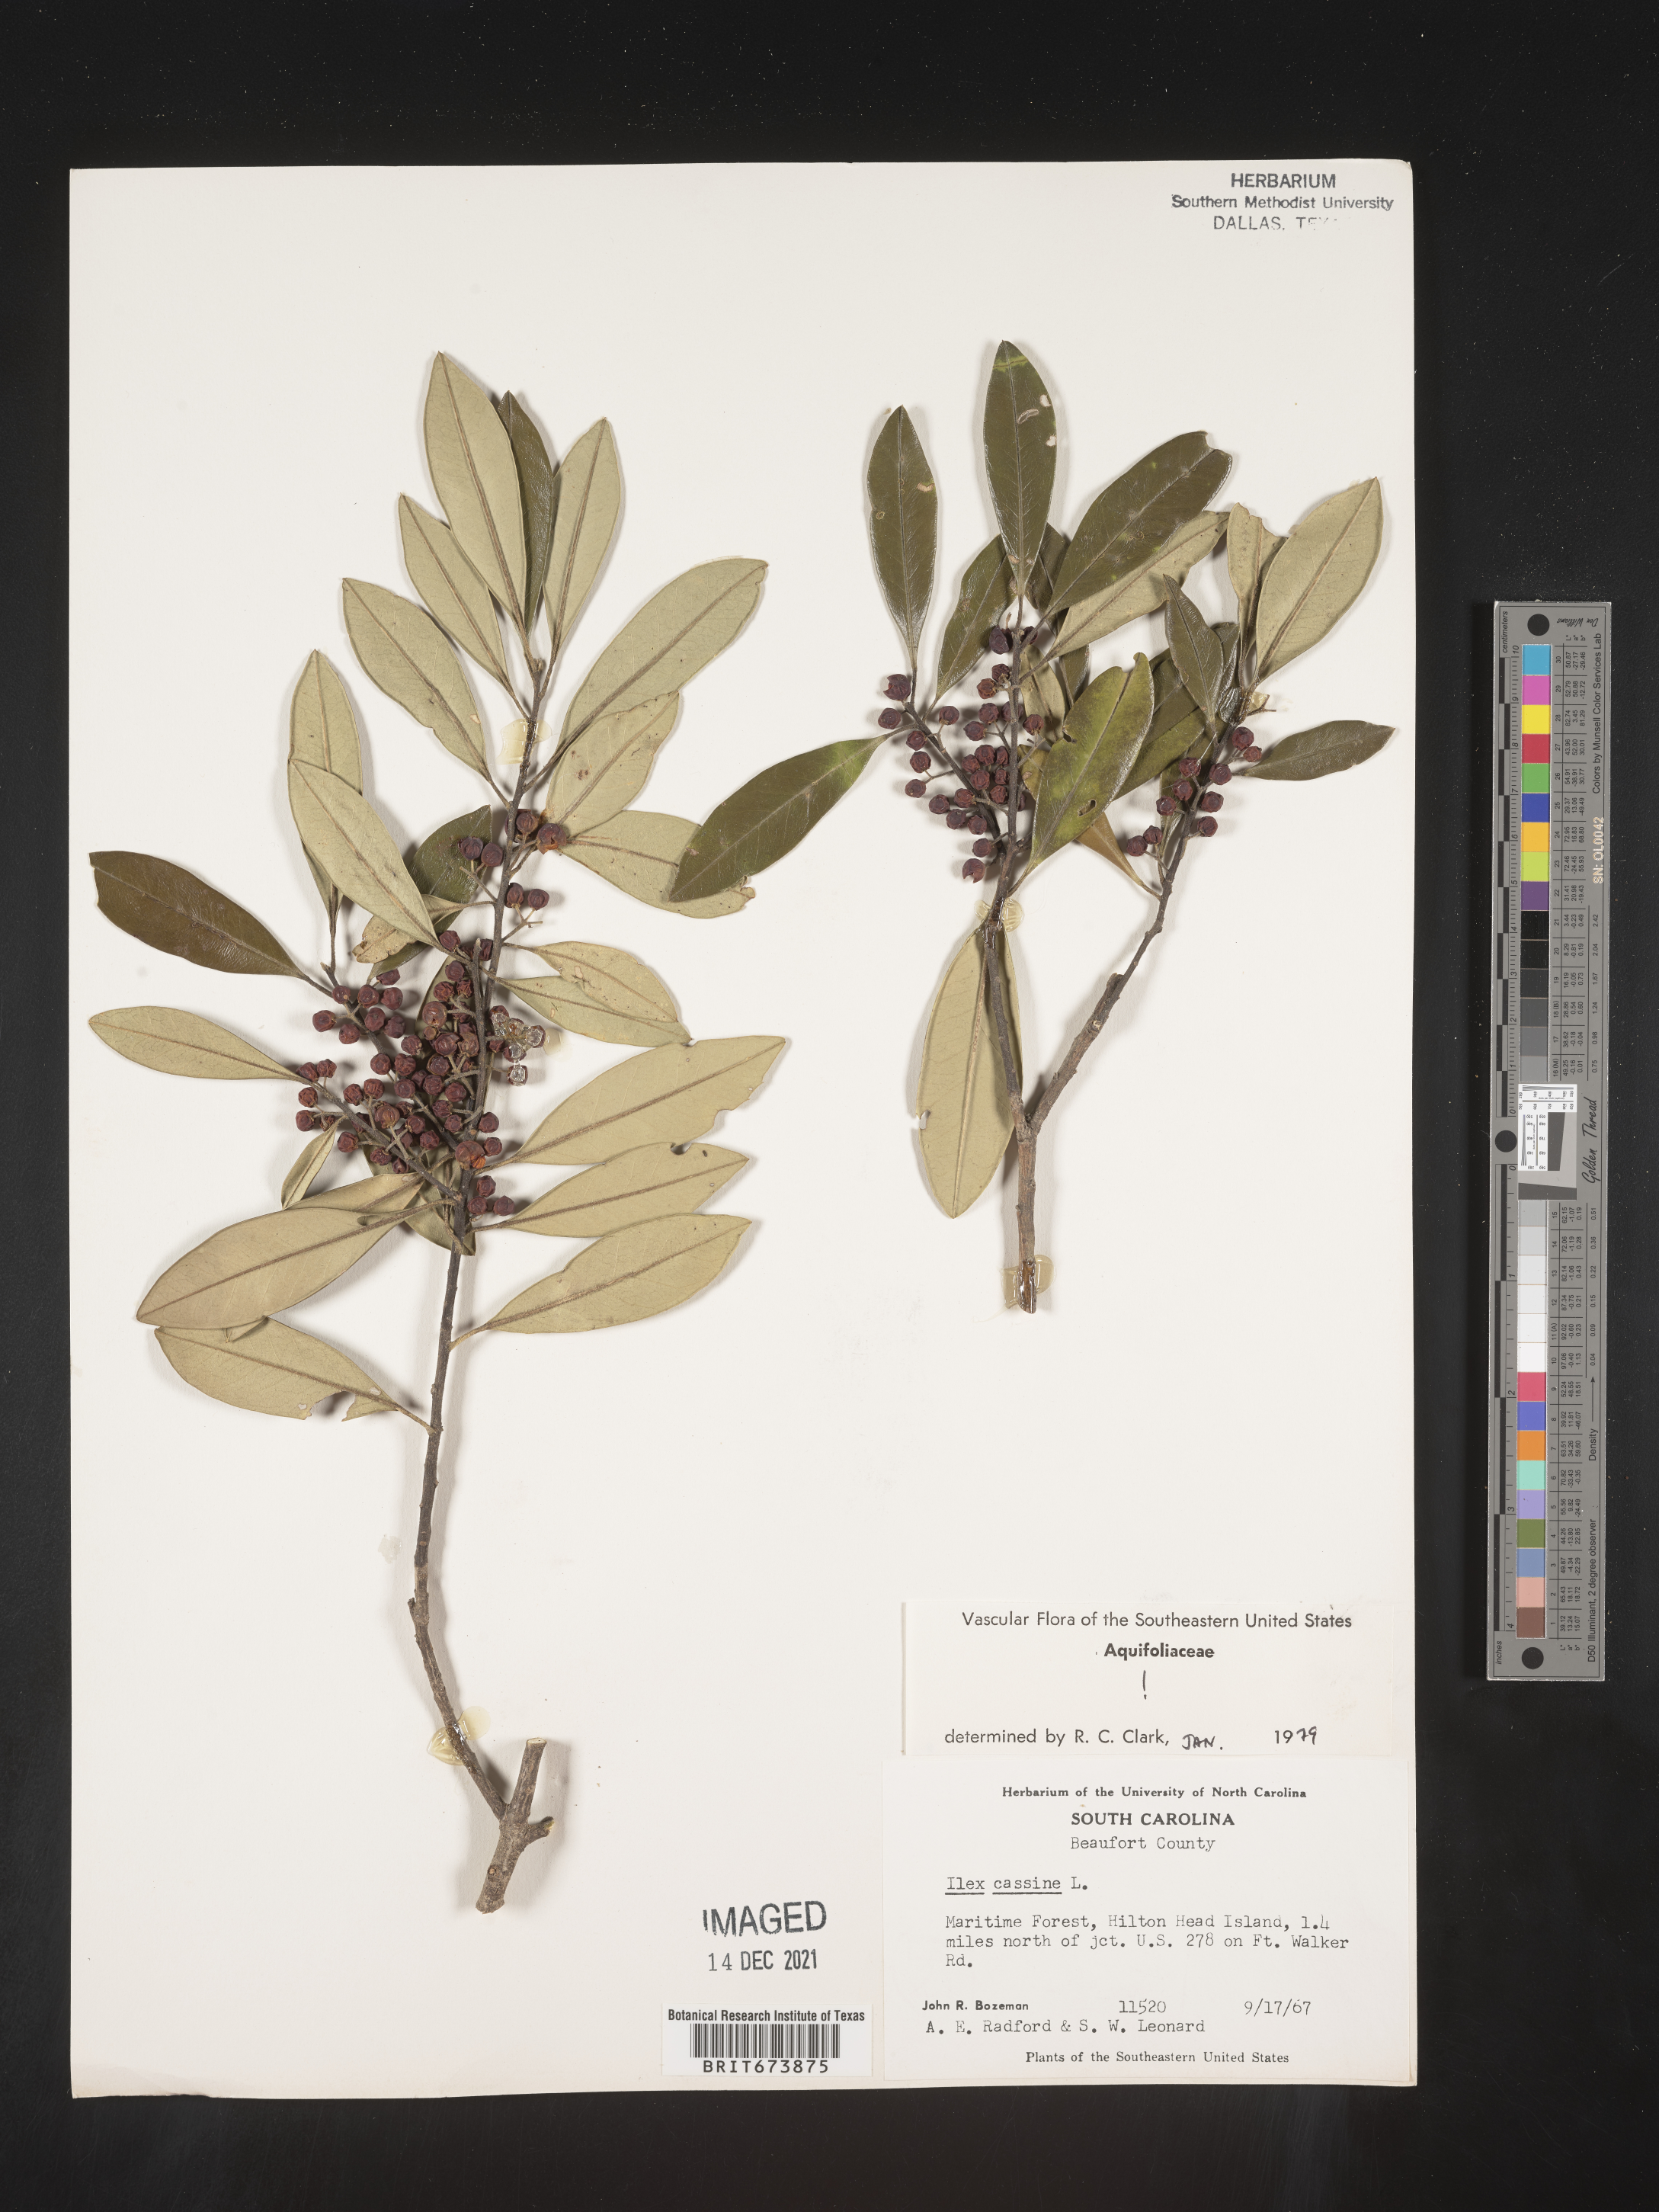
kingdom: Plantae
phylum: Tracheophyta
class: Magnoliopsida
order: Aquifoliales
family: Aquifoliaceae
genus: Ilex
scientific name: Ilex cassine
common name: Dahoon
